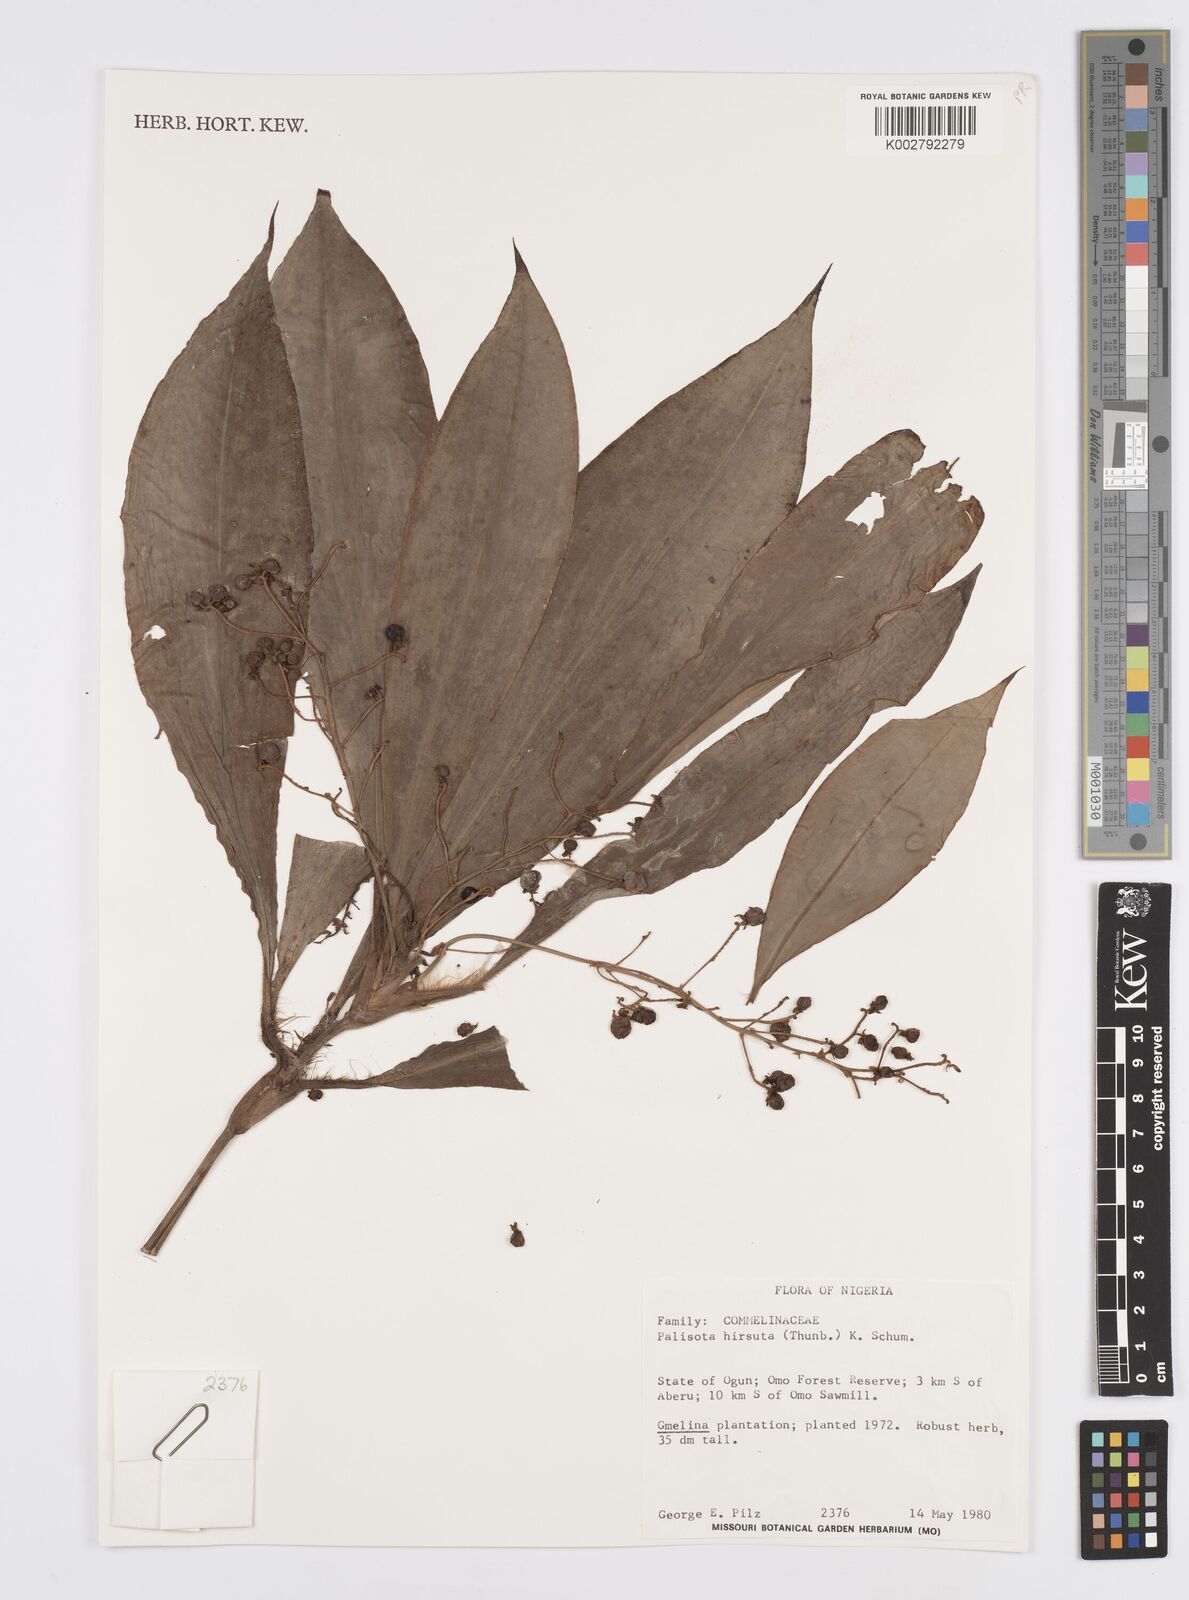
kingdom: Plantae
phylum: Tracheophyta
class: Liliopsida
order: Commelinales
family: Commelinaceae
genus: Palisota
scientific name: Palisota hirsuta
